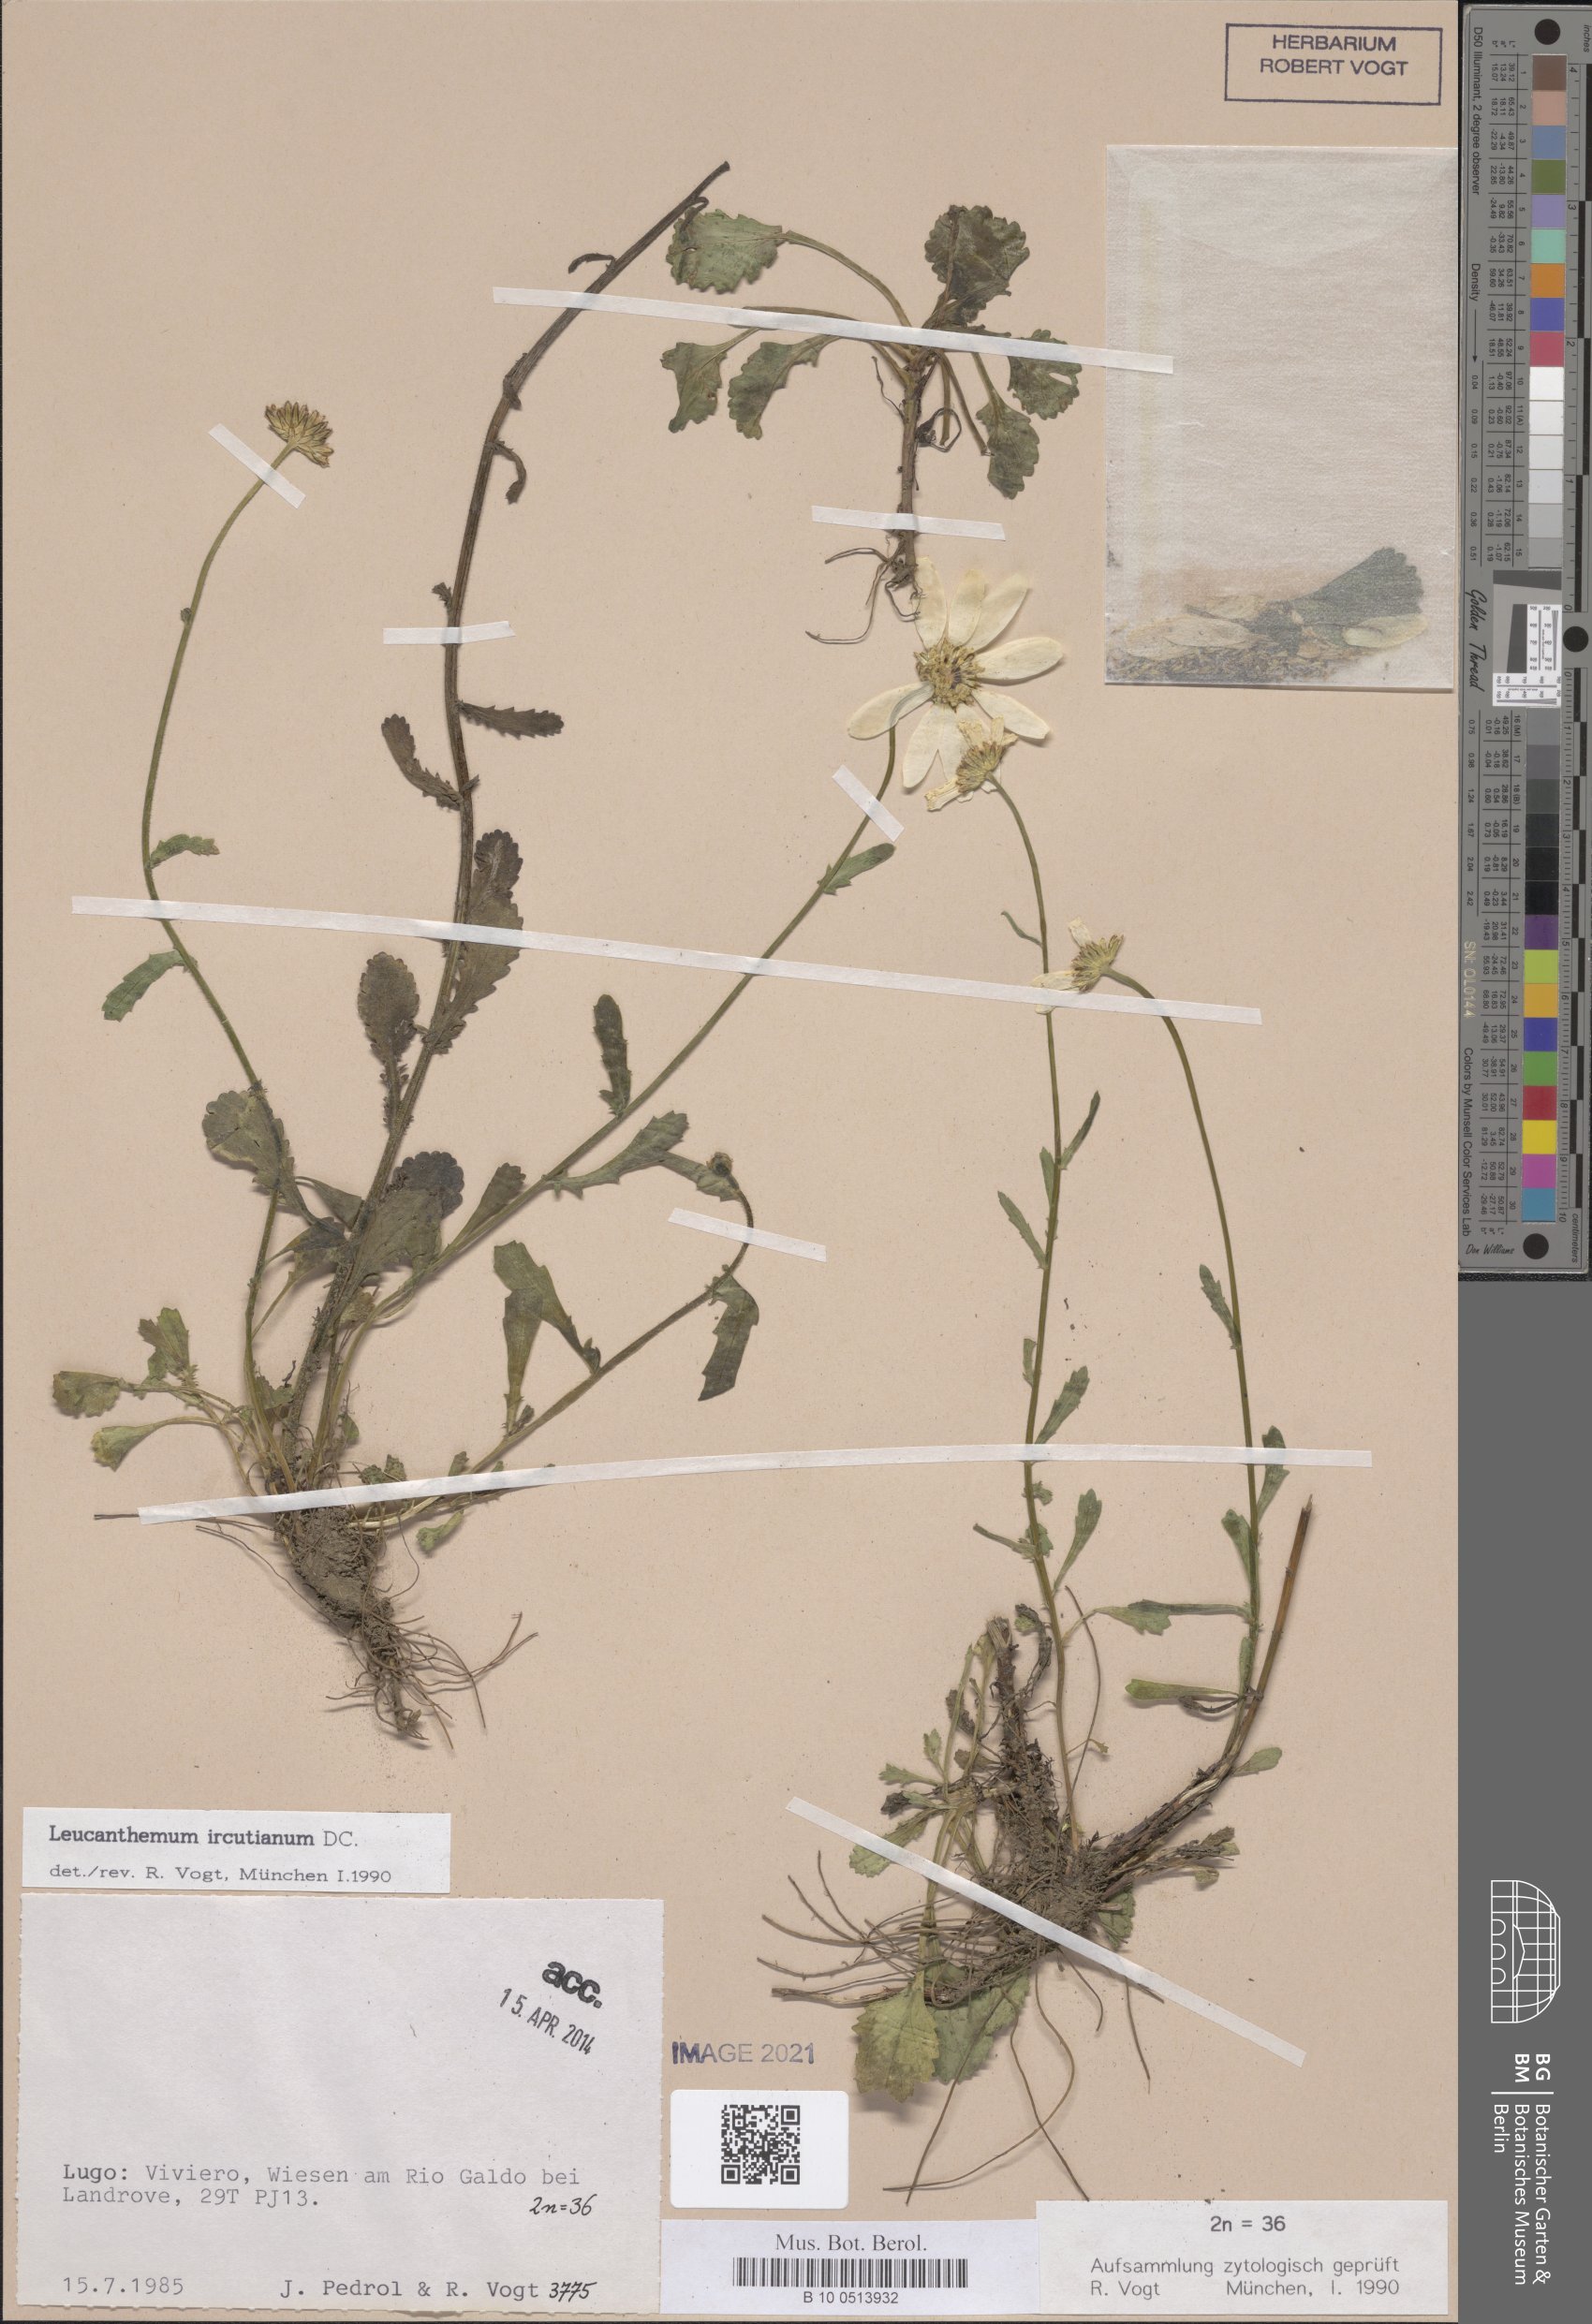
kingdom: Plantae
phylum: Tracheophyta
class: Magnoliopsida
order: Asterales
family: Asteraceae
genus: Leucanthemum
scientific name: Leucanthemum ircutianum
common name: Daisy
